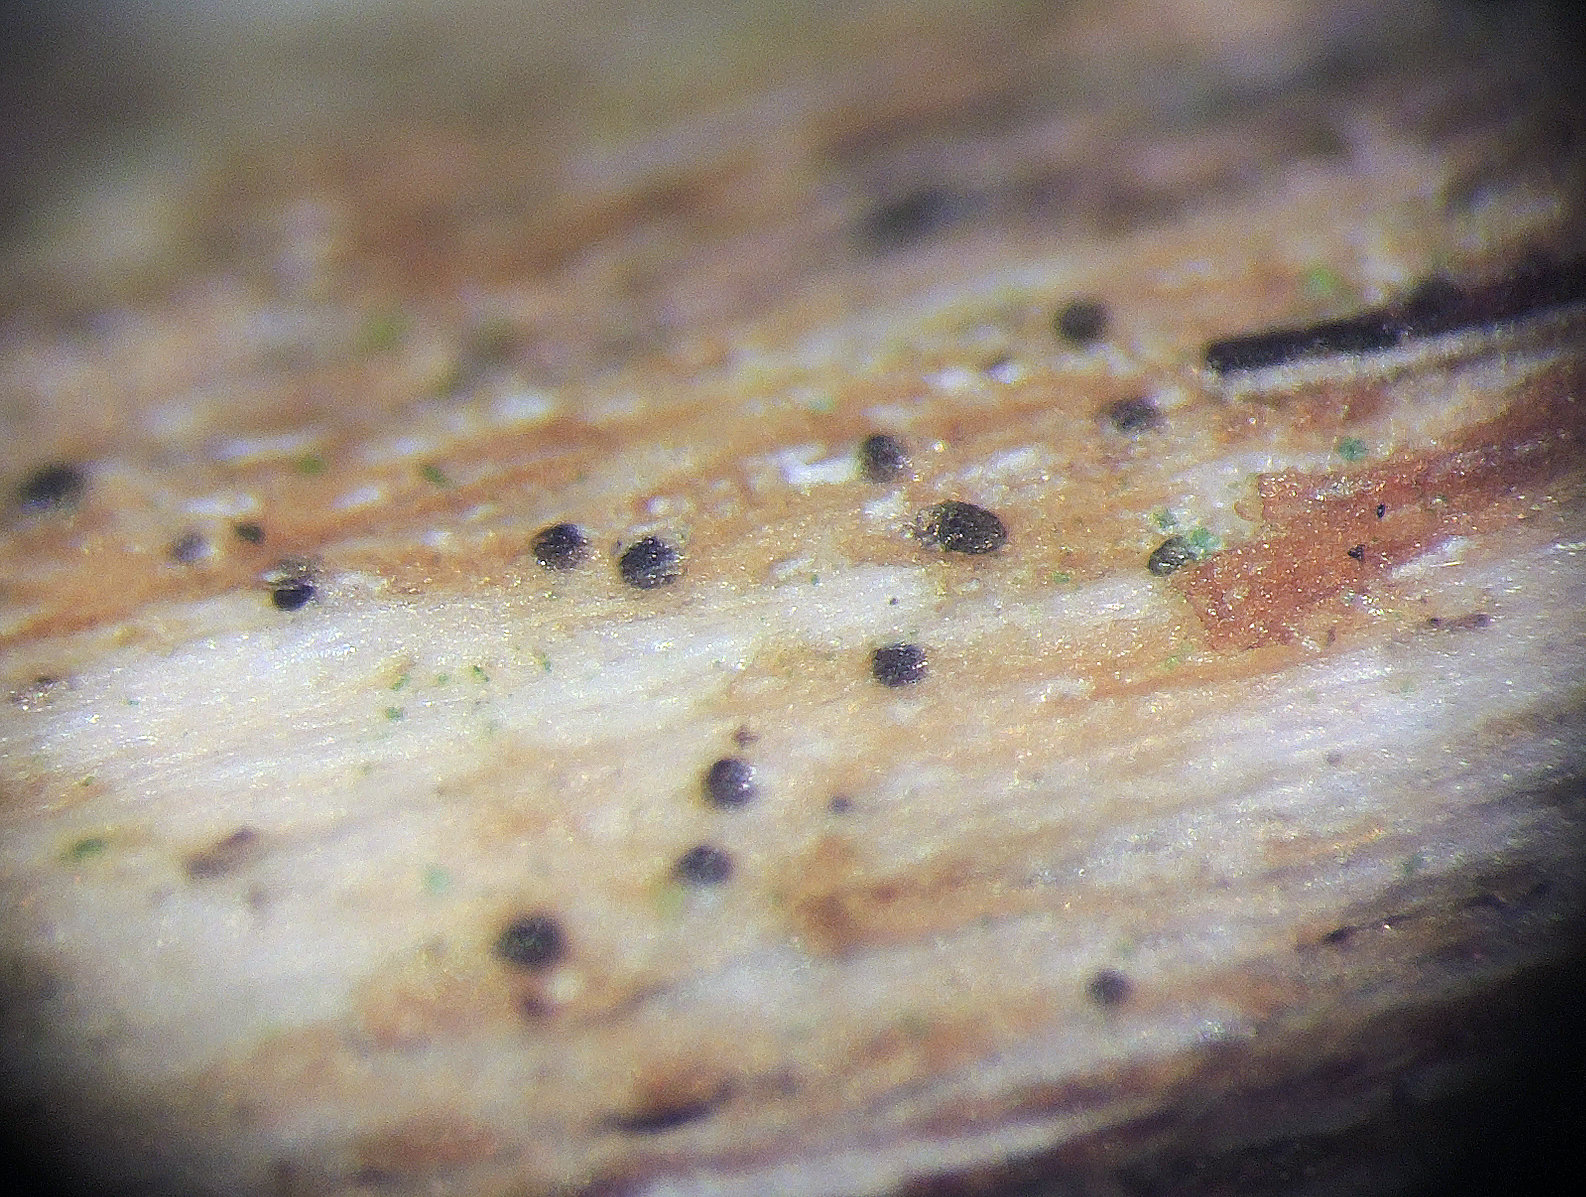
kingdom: Fungi
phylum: Ascomycota
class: Dothideomycetes
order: Pleosporales
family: Didymellaceae
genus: Ascochyta
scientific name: Ascochyta deformis
